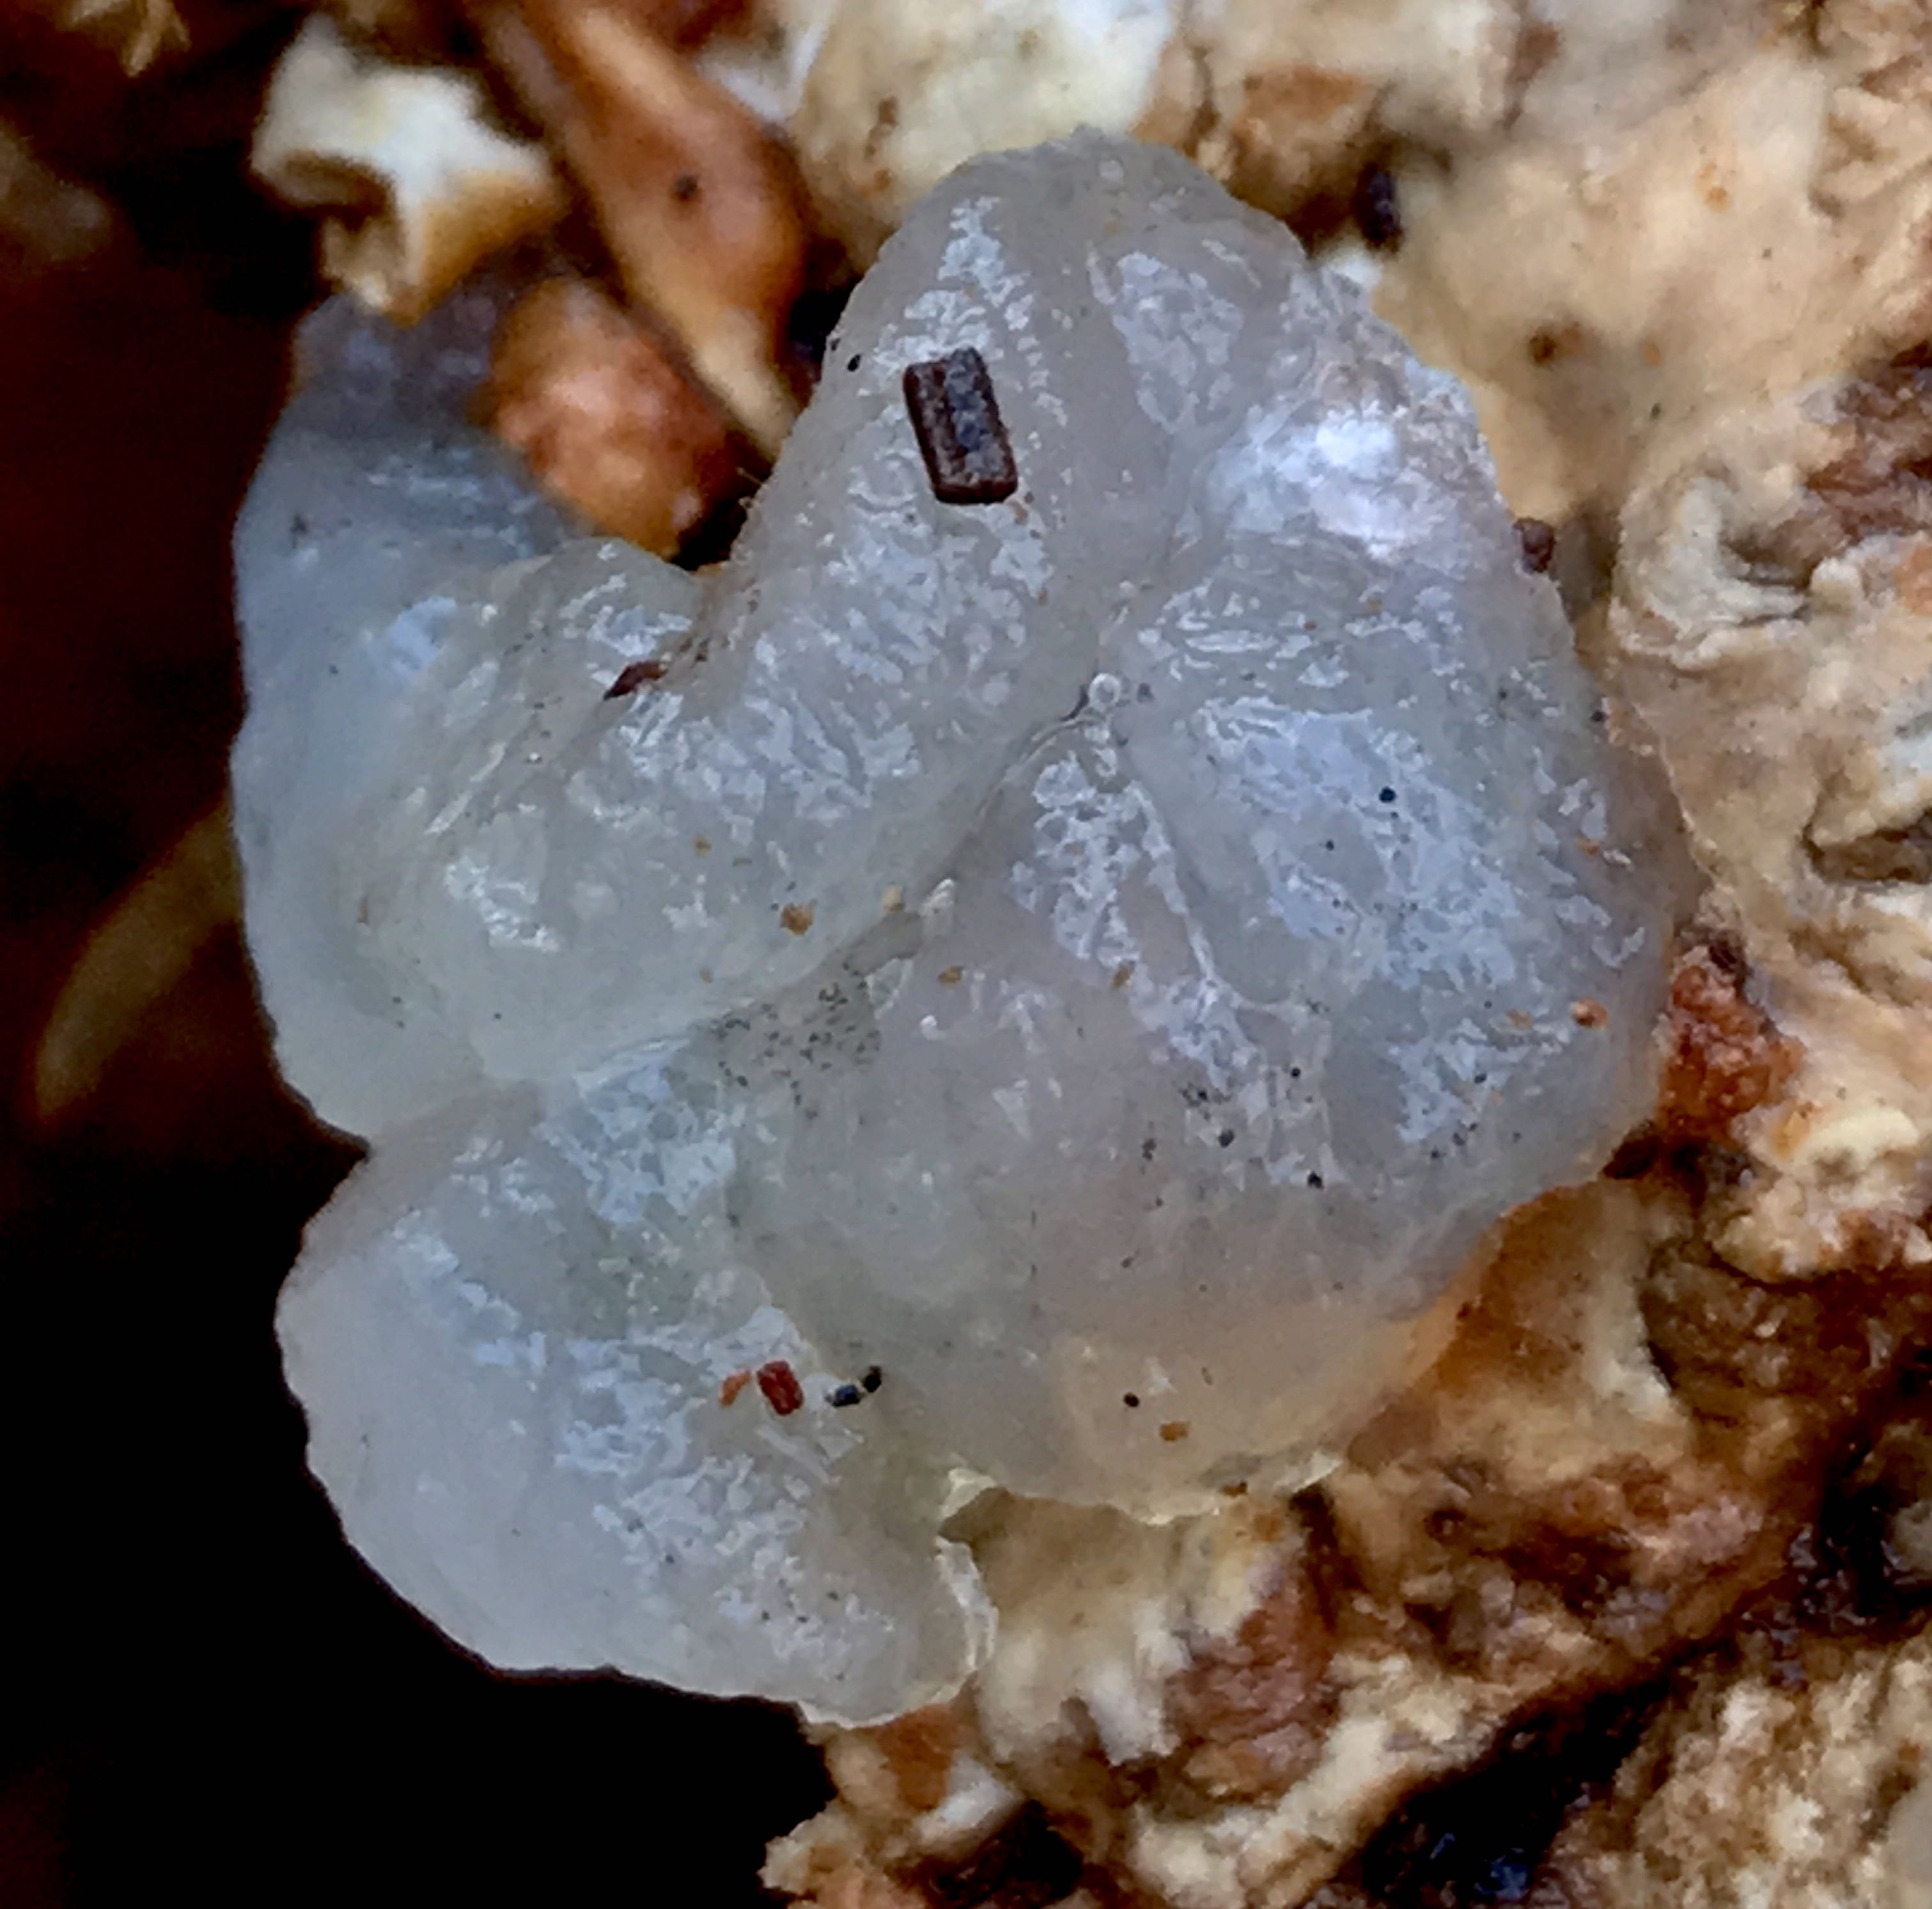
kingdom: Fungi
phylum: Basidiomycota
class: Agaricomycetes
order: Auriculariales
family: Hyaloriaceae
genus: Myxarium
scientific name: Myxarium nucleatum
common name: klar bævretop
